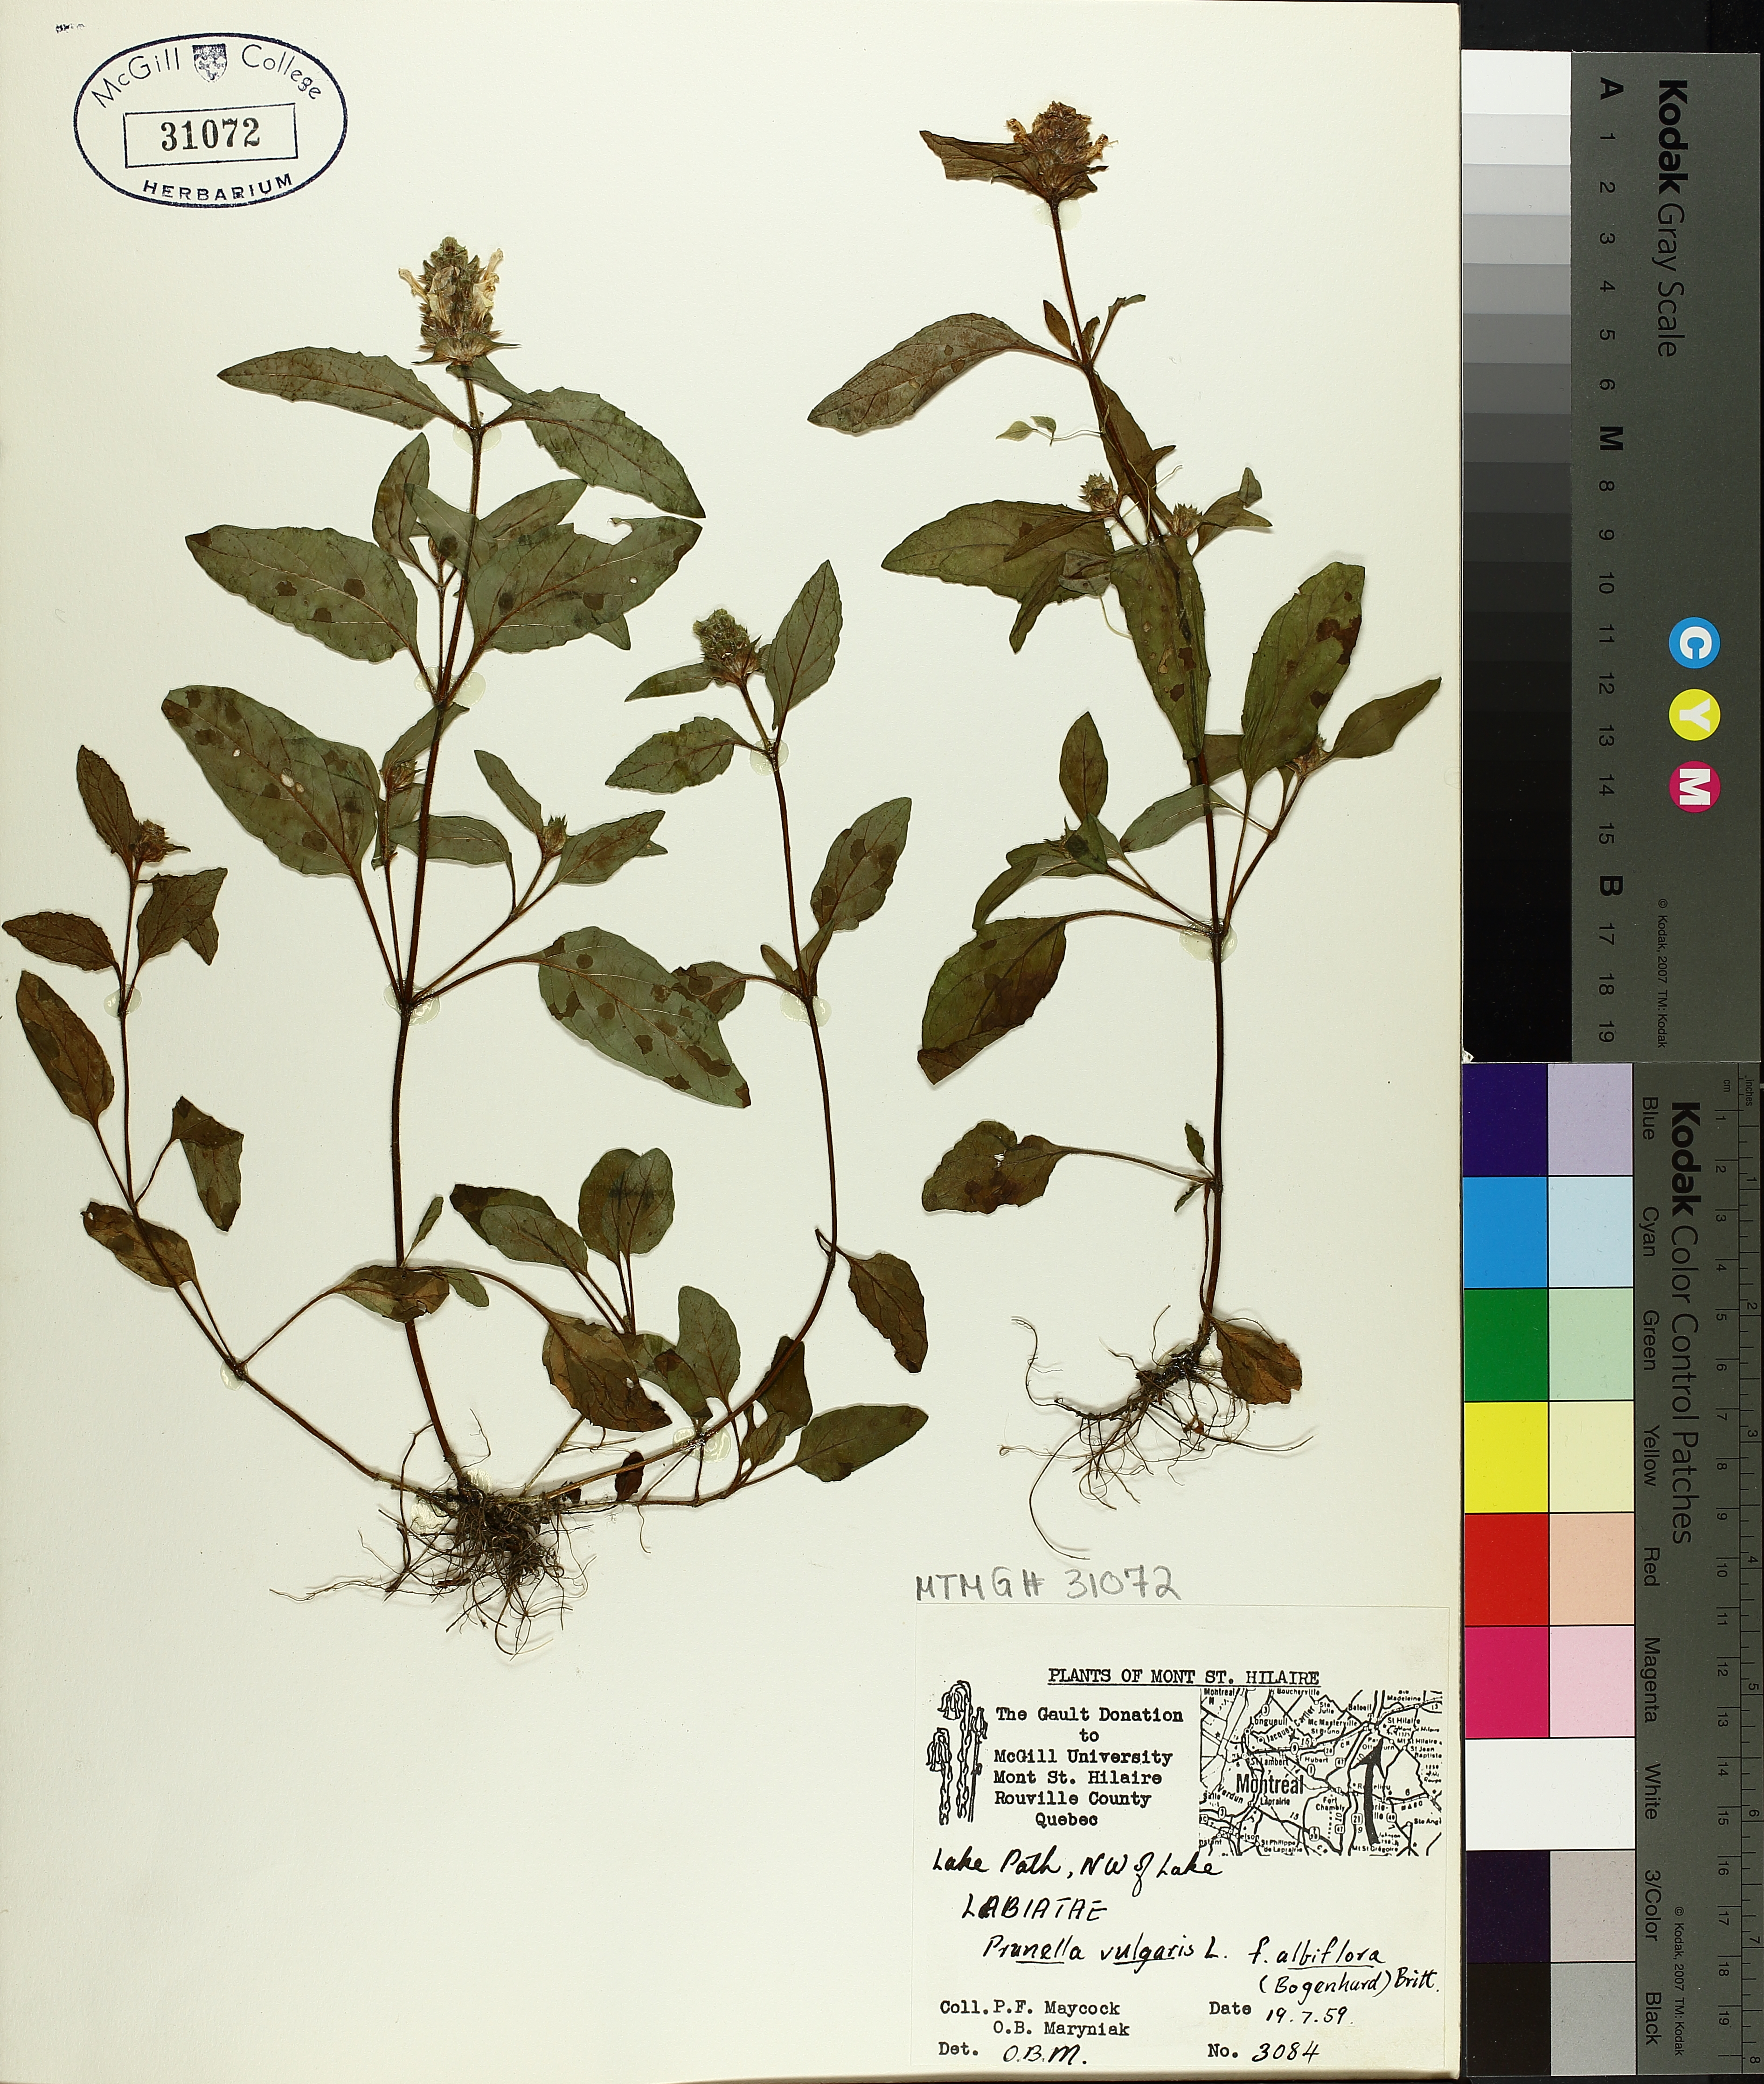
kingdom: Plantae
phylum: Tracheophyta
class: Magnoliopsida
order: Lamiales
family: Lamiaceae
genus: Prunella
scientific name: Prunella vulgaris
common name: Heal-all
